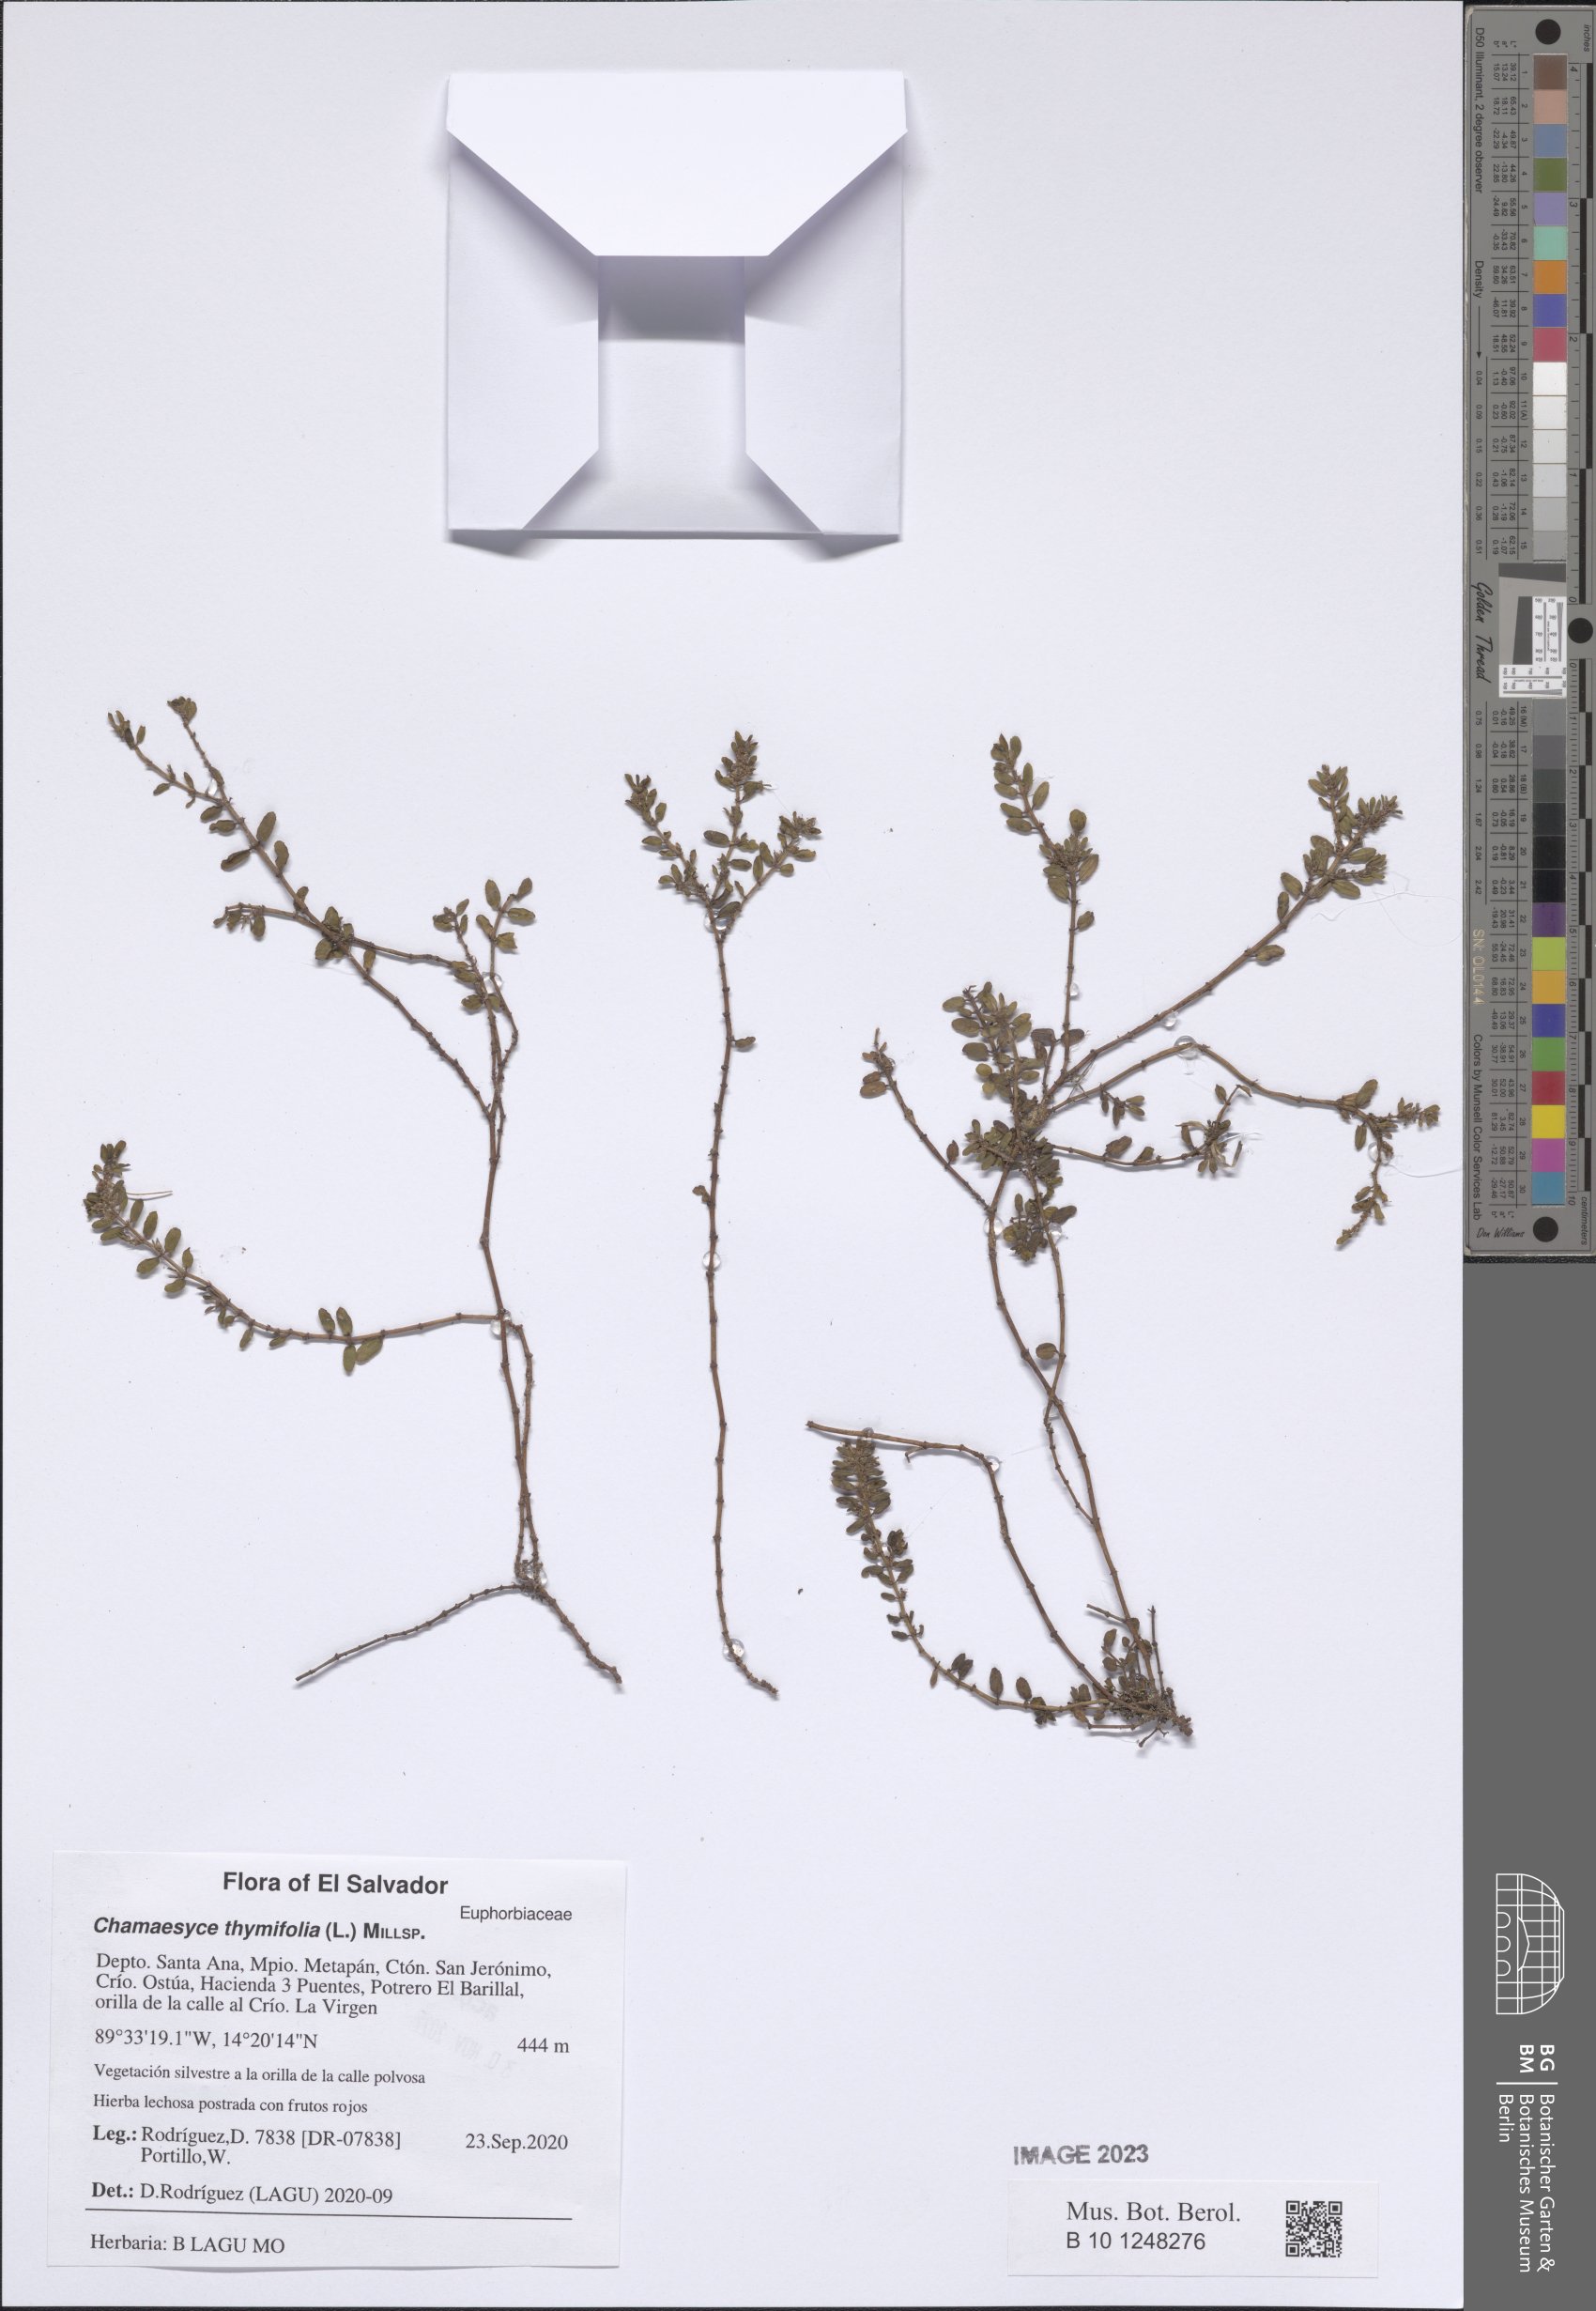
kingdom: Plantae
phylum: Tracheophyta
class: Magnoliopsida
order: Malpighiales
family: Euphorbiaceae
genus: Euphorbia
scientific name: Euphorbia thymifolia
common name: Gulf sandmat
